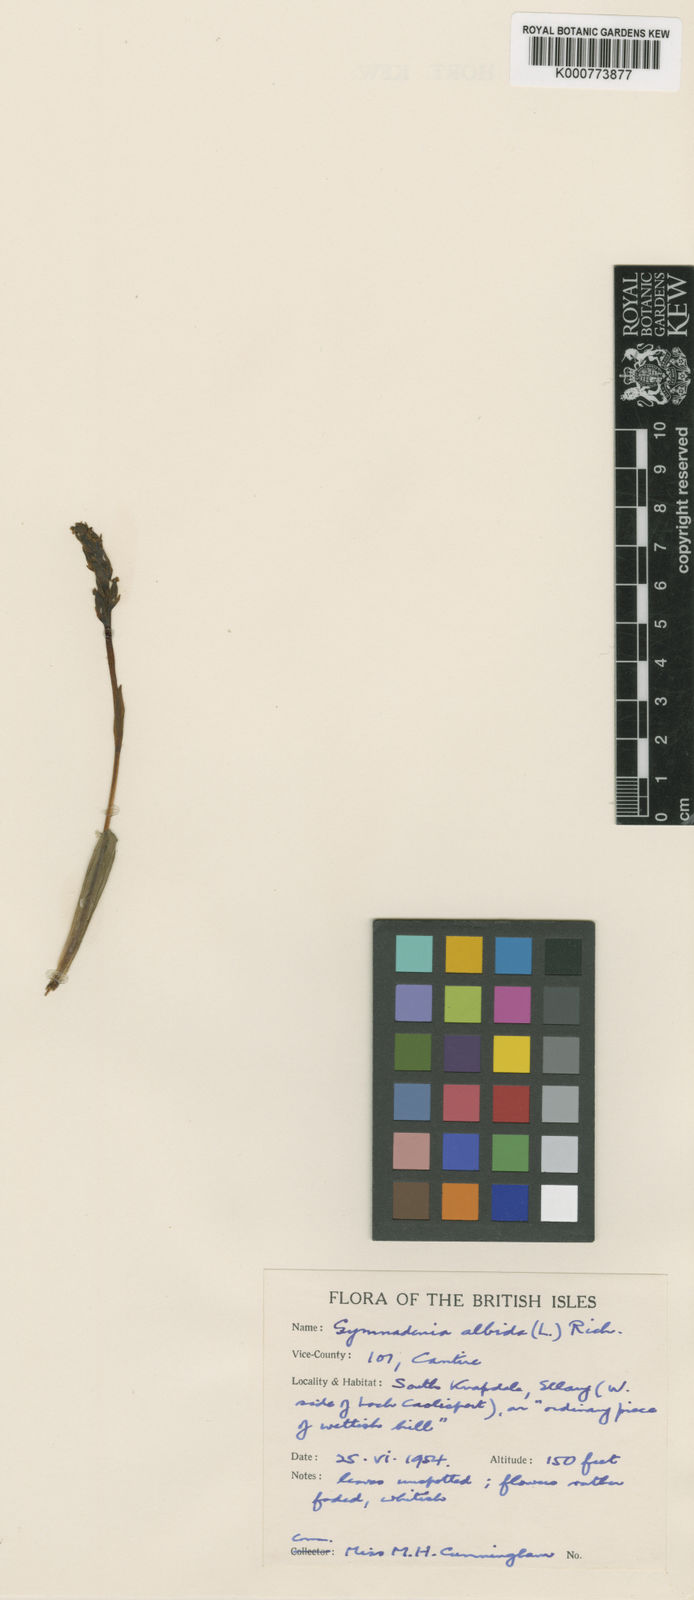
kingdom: Plantae
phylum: Tracheophyta
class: Liliopsida
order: Asparagales
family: Orchidaceae
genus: Pseudorchis
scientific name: Pseudorchis
